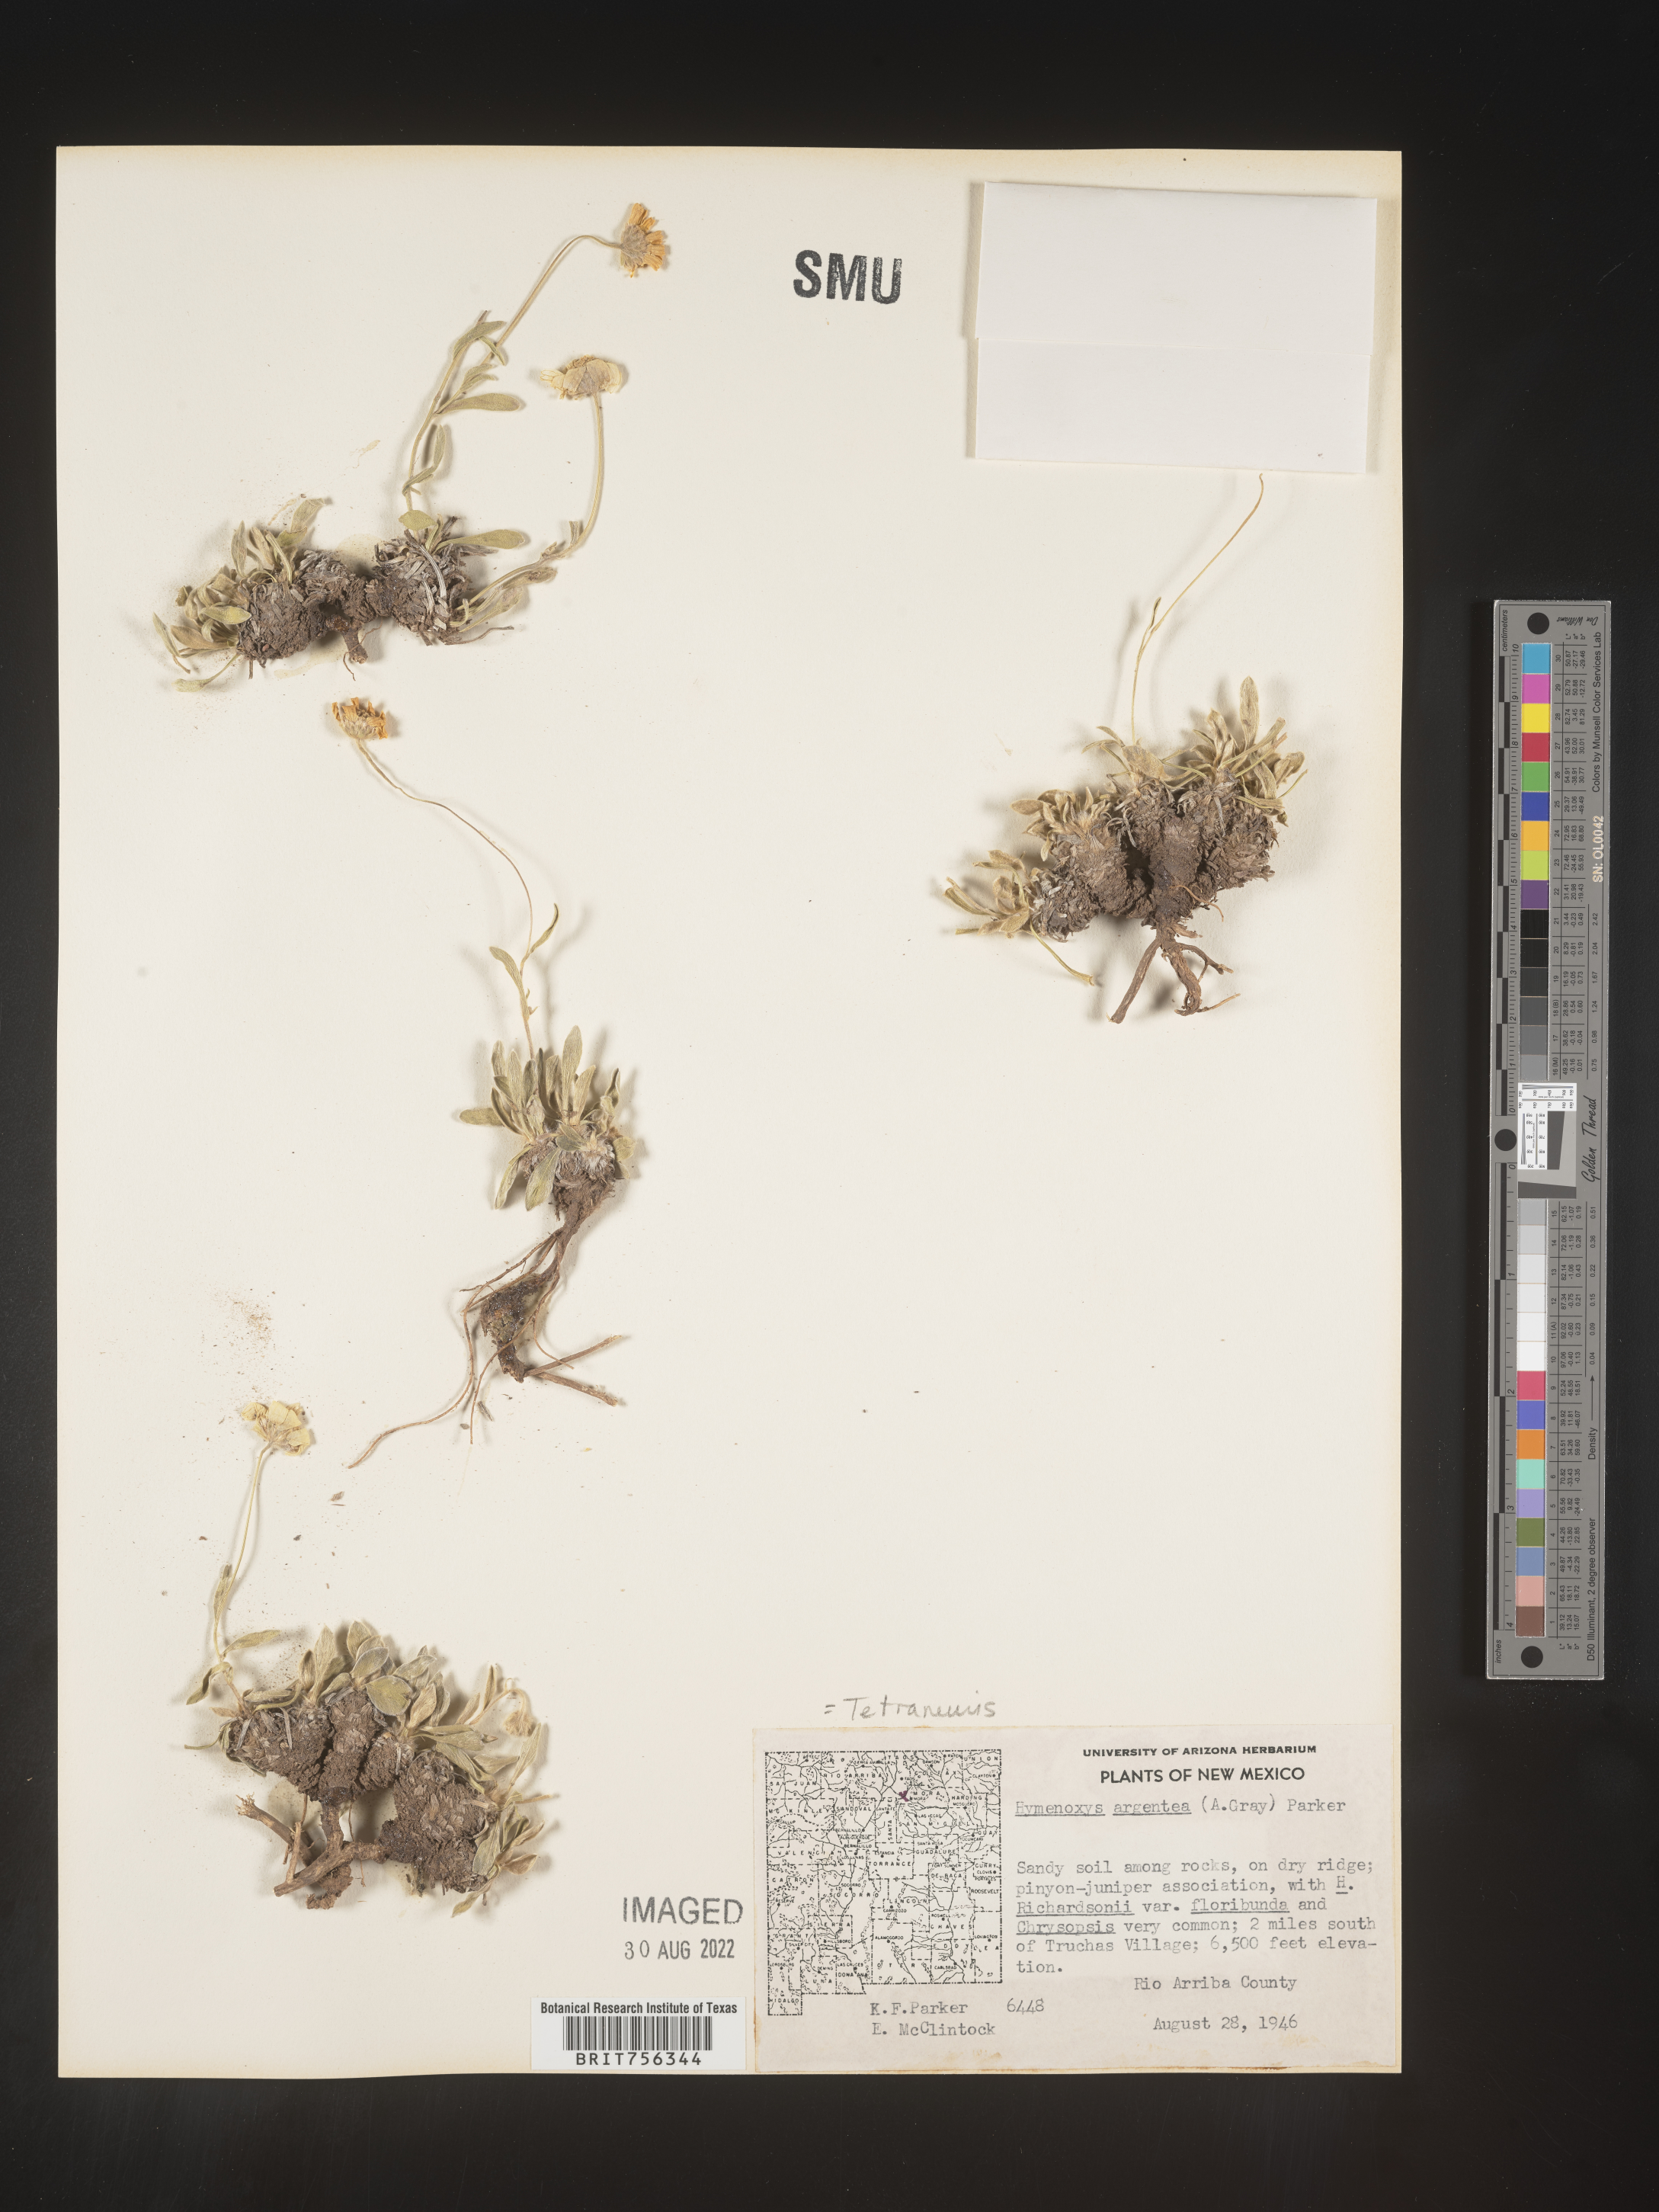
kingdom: Plantae
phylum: Tracheophyta
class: Magnoliopsida
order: Asterales
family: Asteraceae
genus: Tetraneuris
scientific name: Tetraneuris argentea
